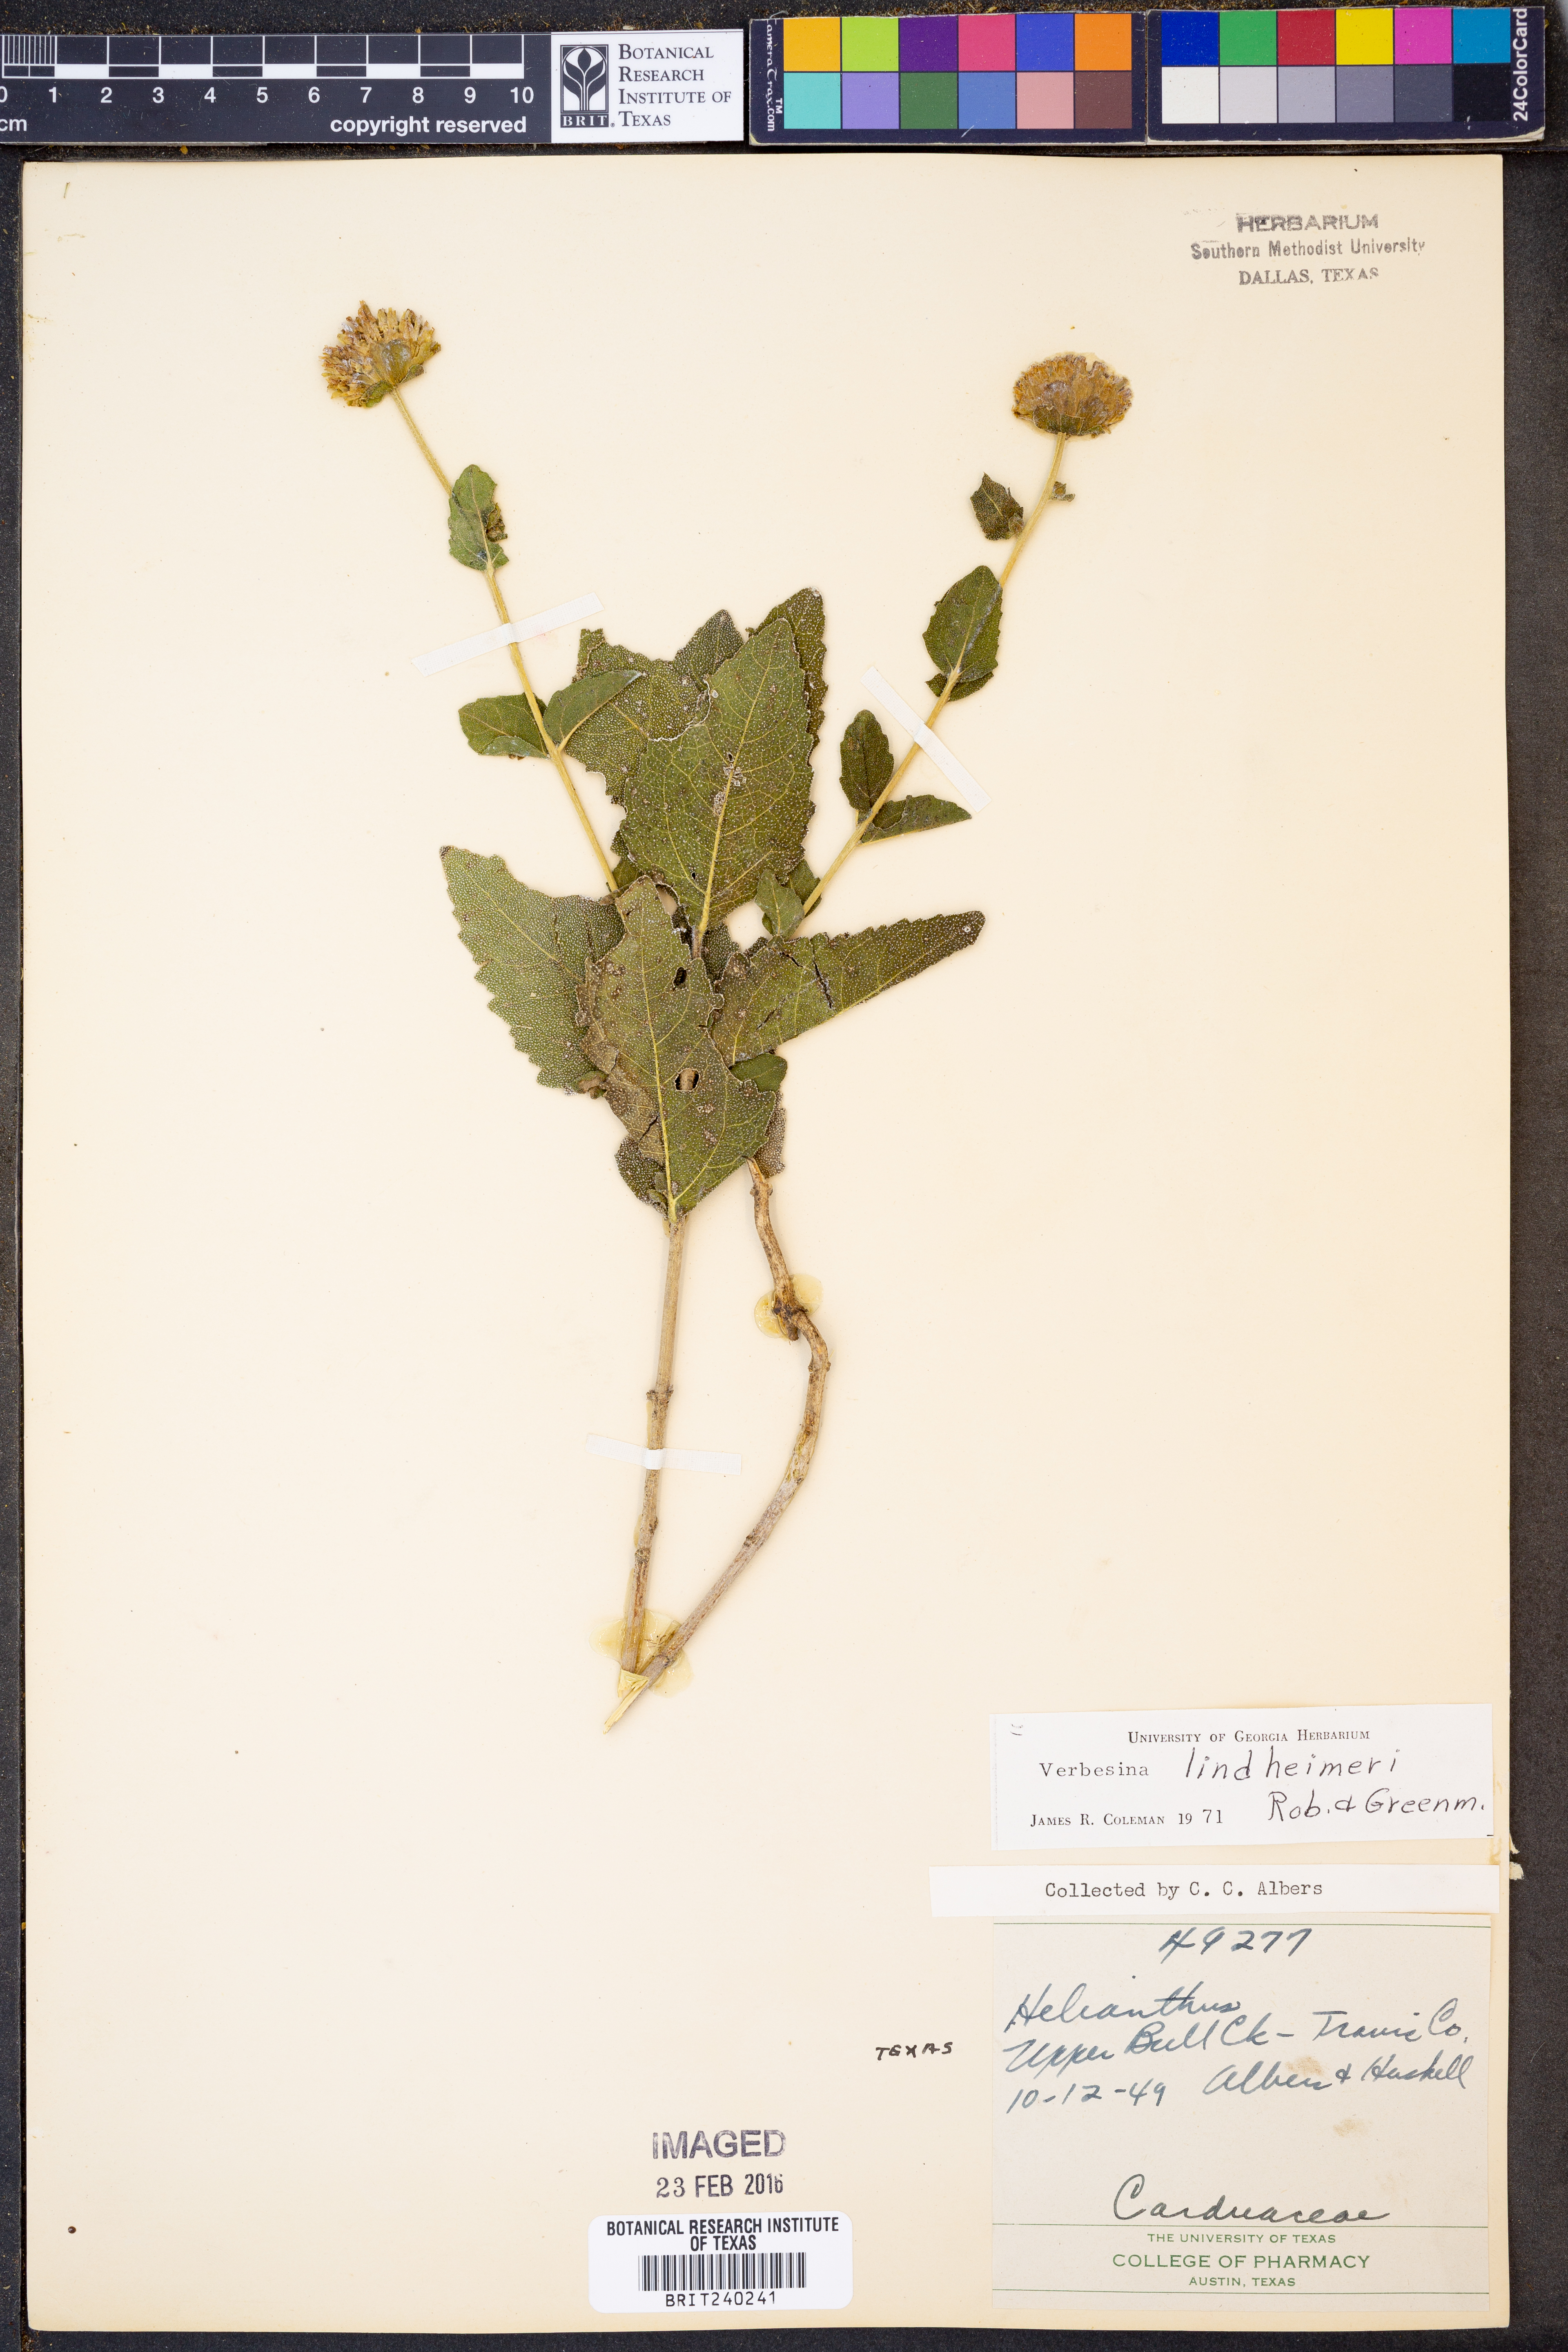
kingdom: Plantae
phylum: Tracheophyta
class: Magnoliopsida
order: Asterales
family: Asteraceae
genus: Verbesina
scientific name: Verbesina lindheimeri
